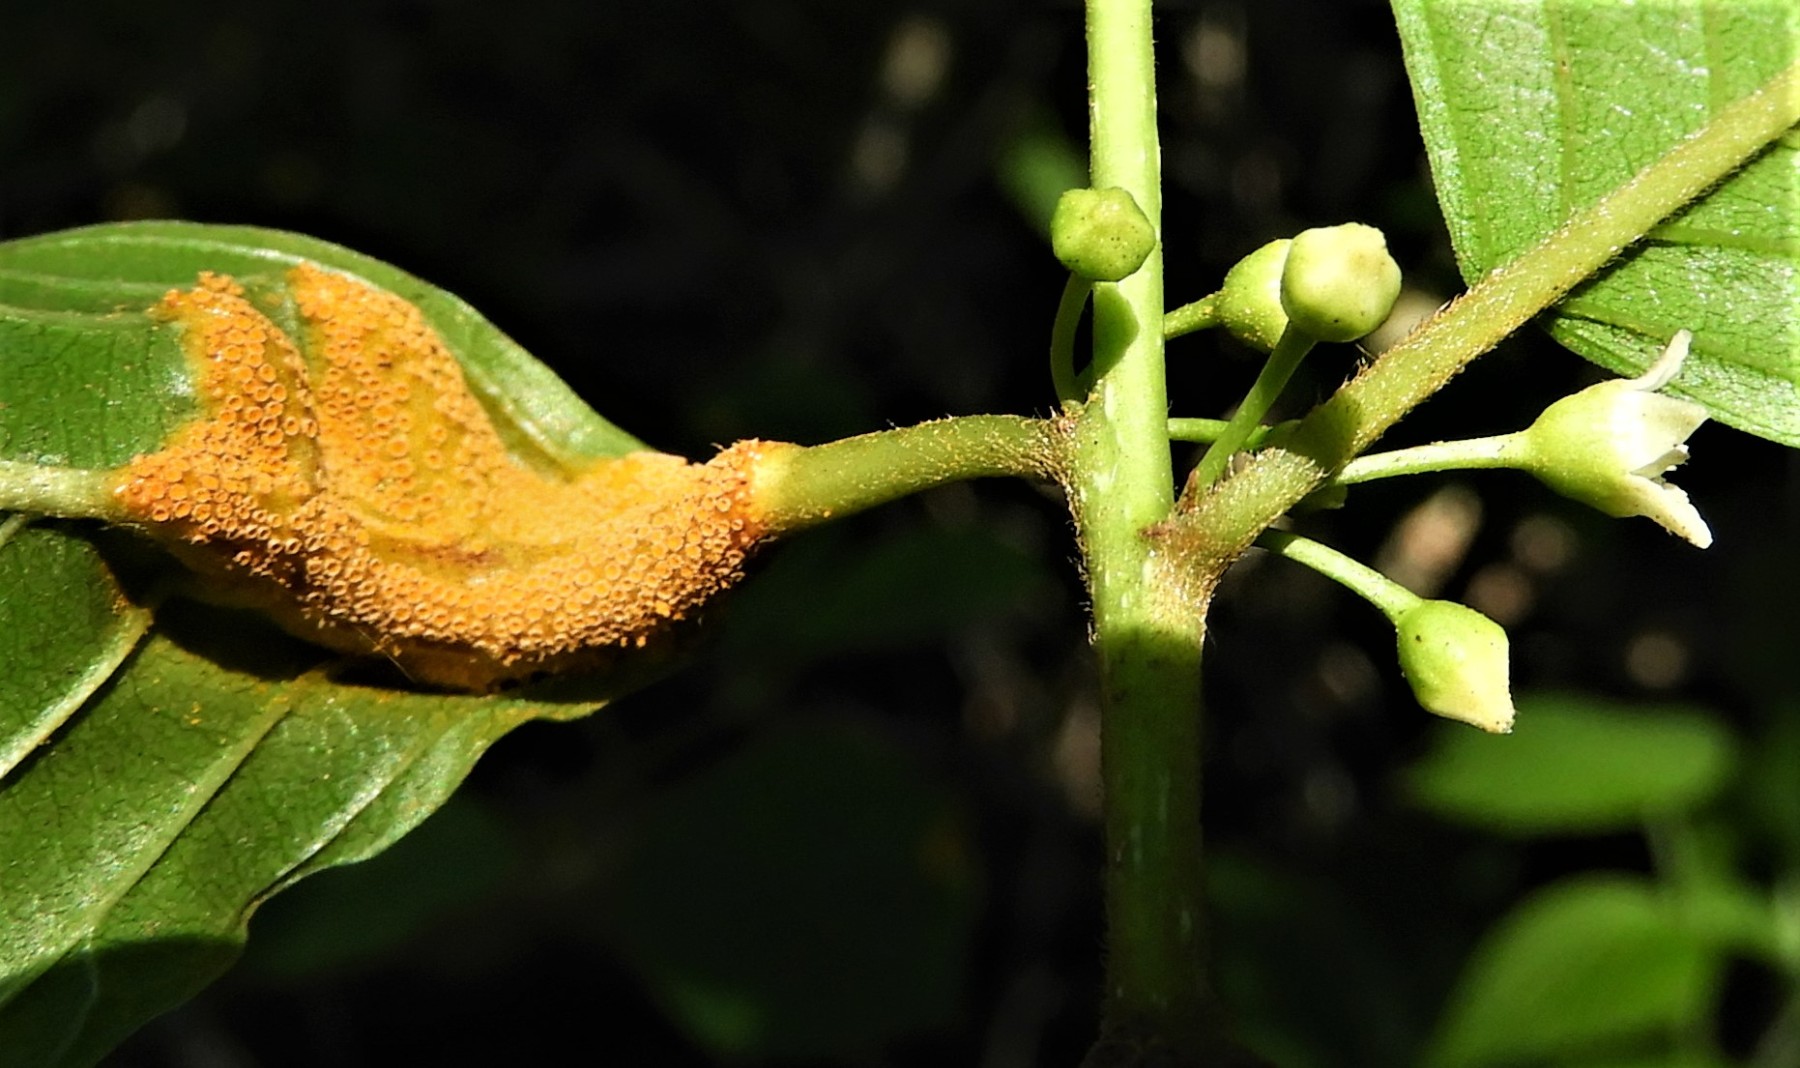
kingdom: Fungi
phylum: Basidiomycota
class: Pucciniomycetes
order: Pucciniales
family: Pucciniaceae
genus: Puccinia
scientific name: Puccinia coronata
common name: Crown rust
